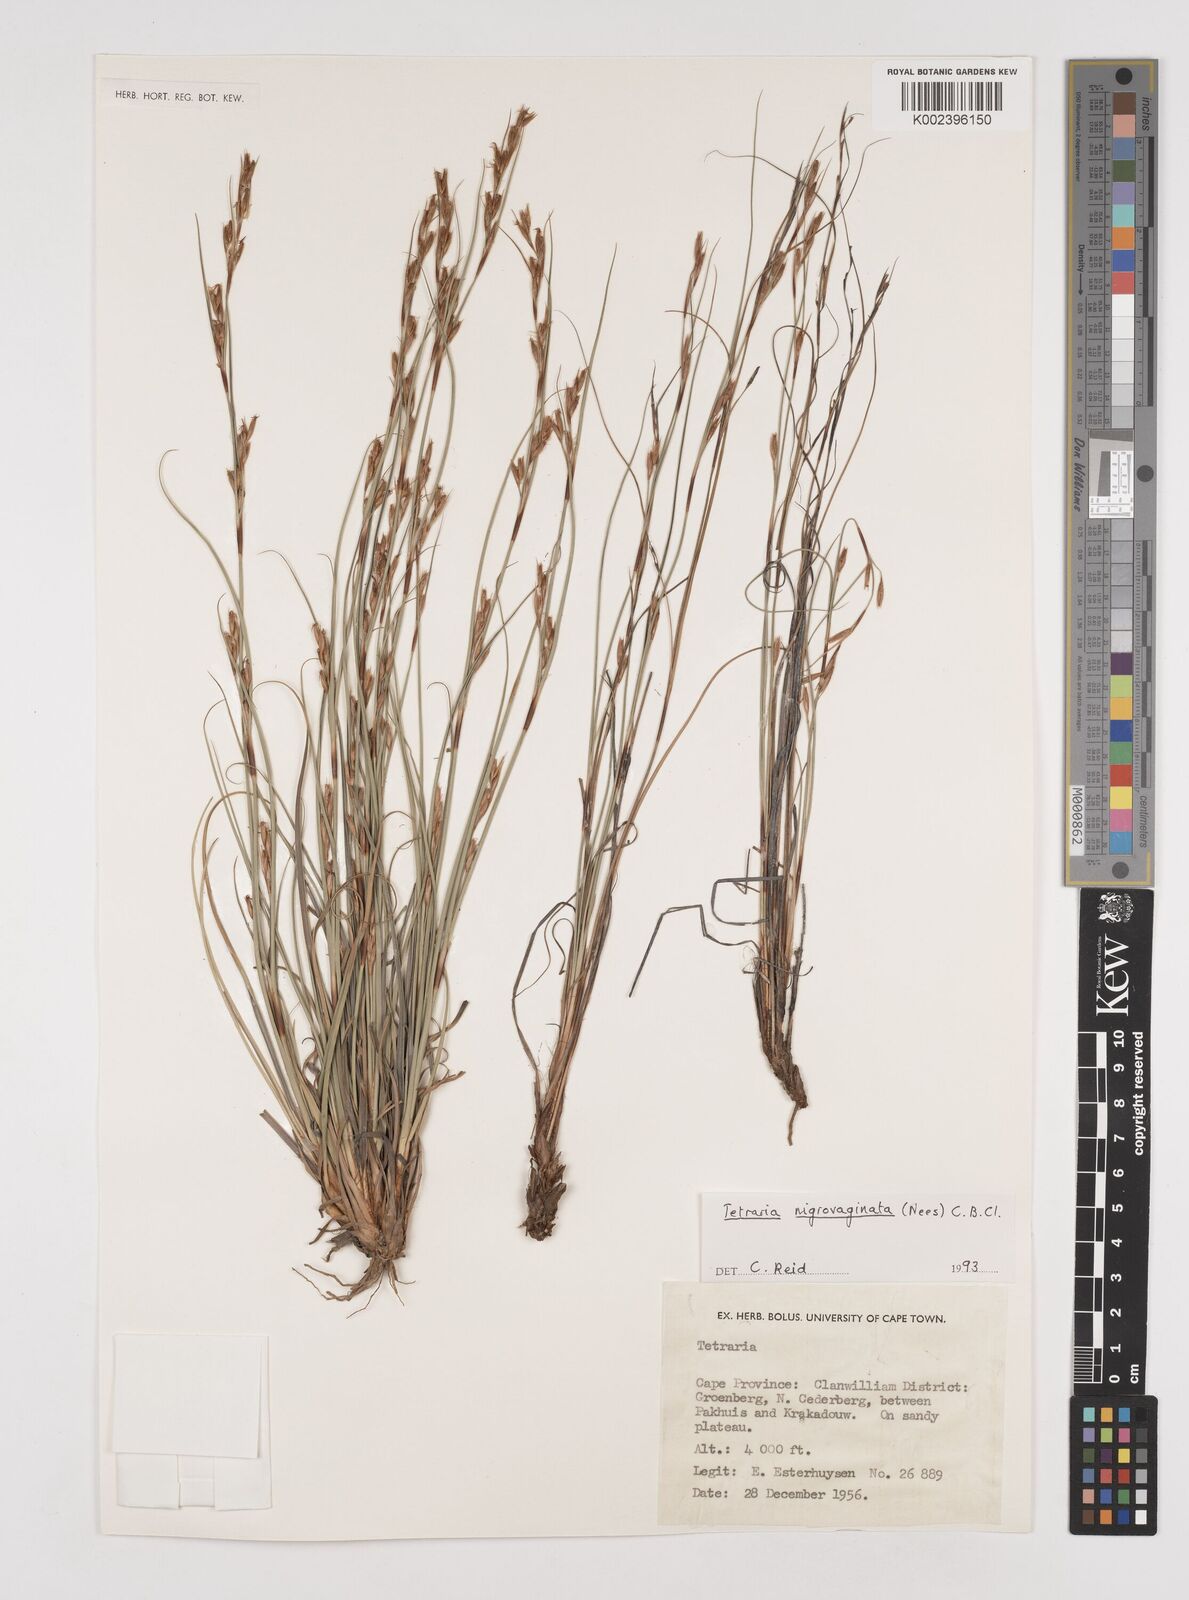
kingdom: Plantae
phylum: Tracheophyta
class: Liliopsida
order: Poales
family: Cyperaceae
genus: Tetraria
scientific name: Tetraria nigrovaginata
